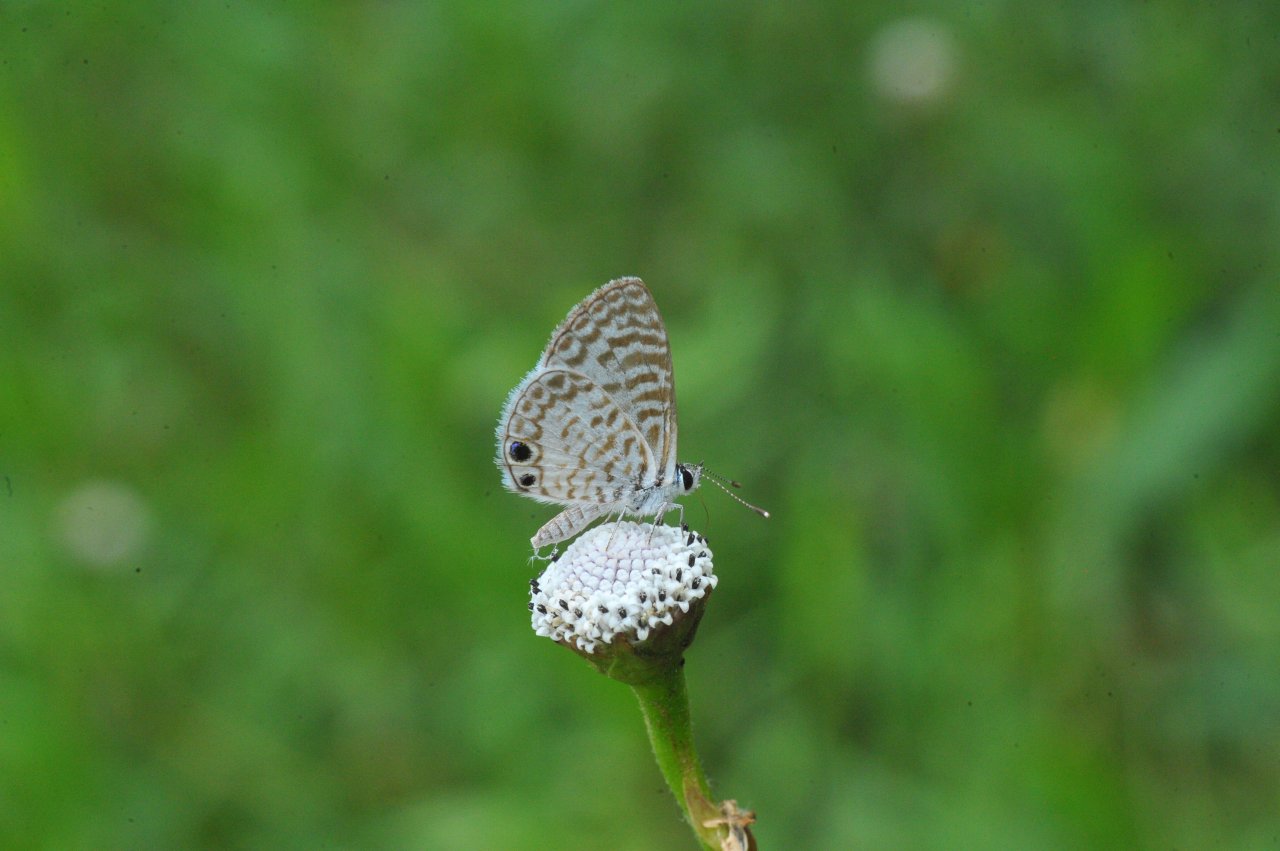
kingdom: Animalia
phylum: Arthropoda
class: Insecta
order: Lepidoptera
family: Lycaenidae
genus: Leptotes
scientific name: Leptotes cassius
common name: Cassius Blue
